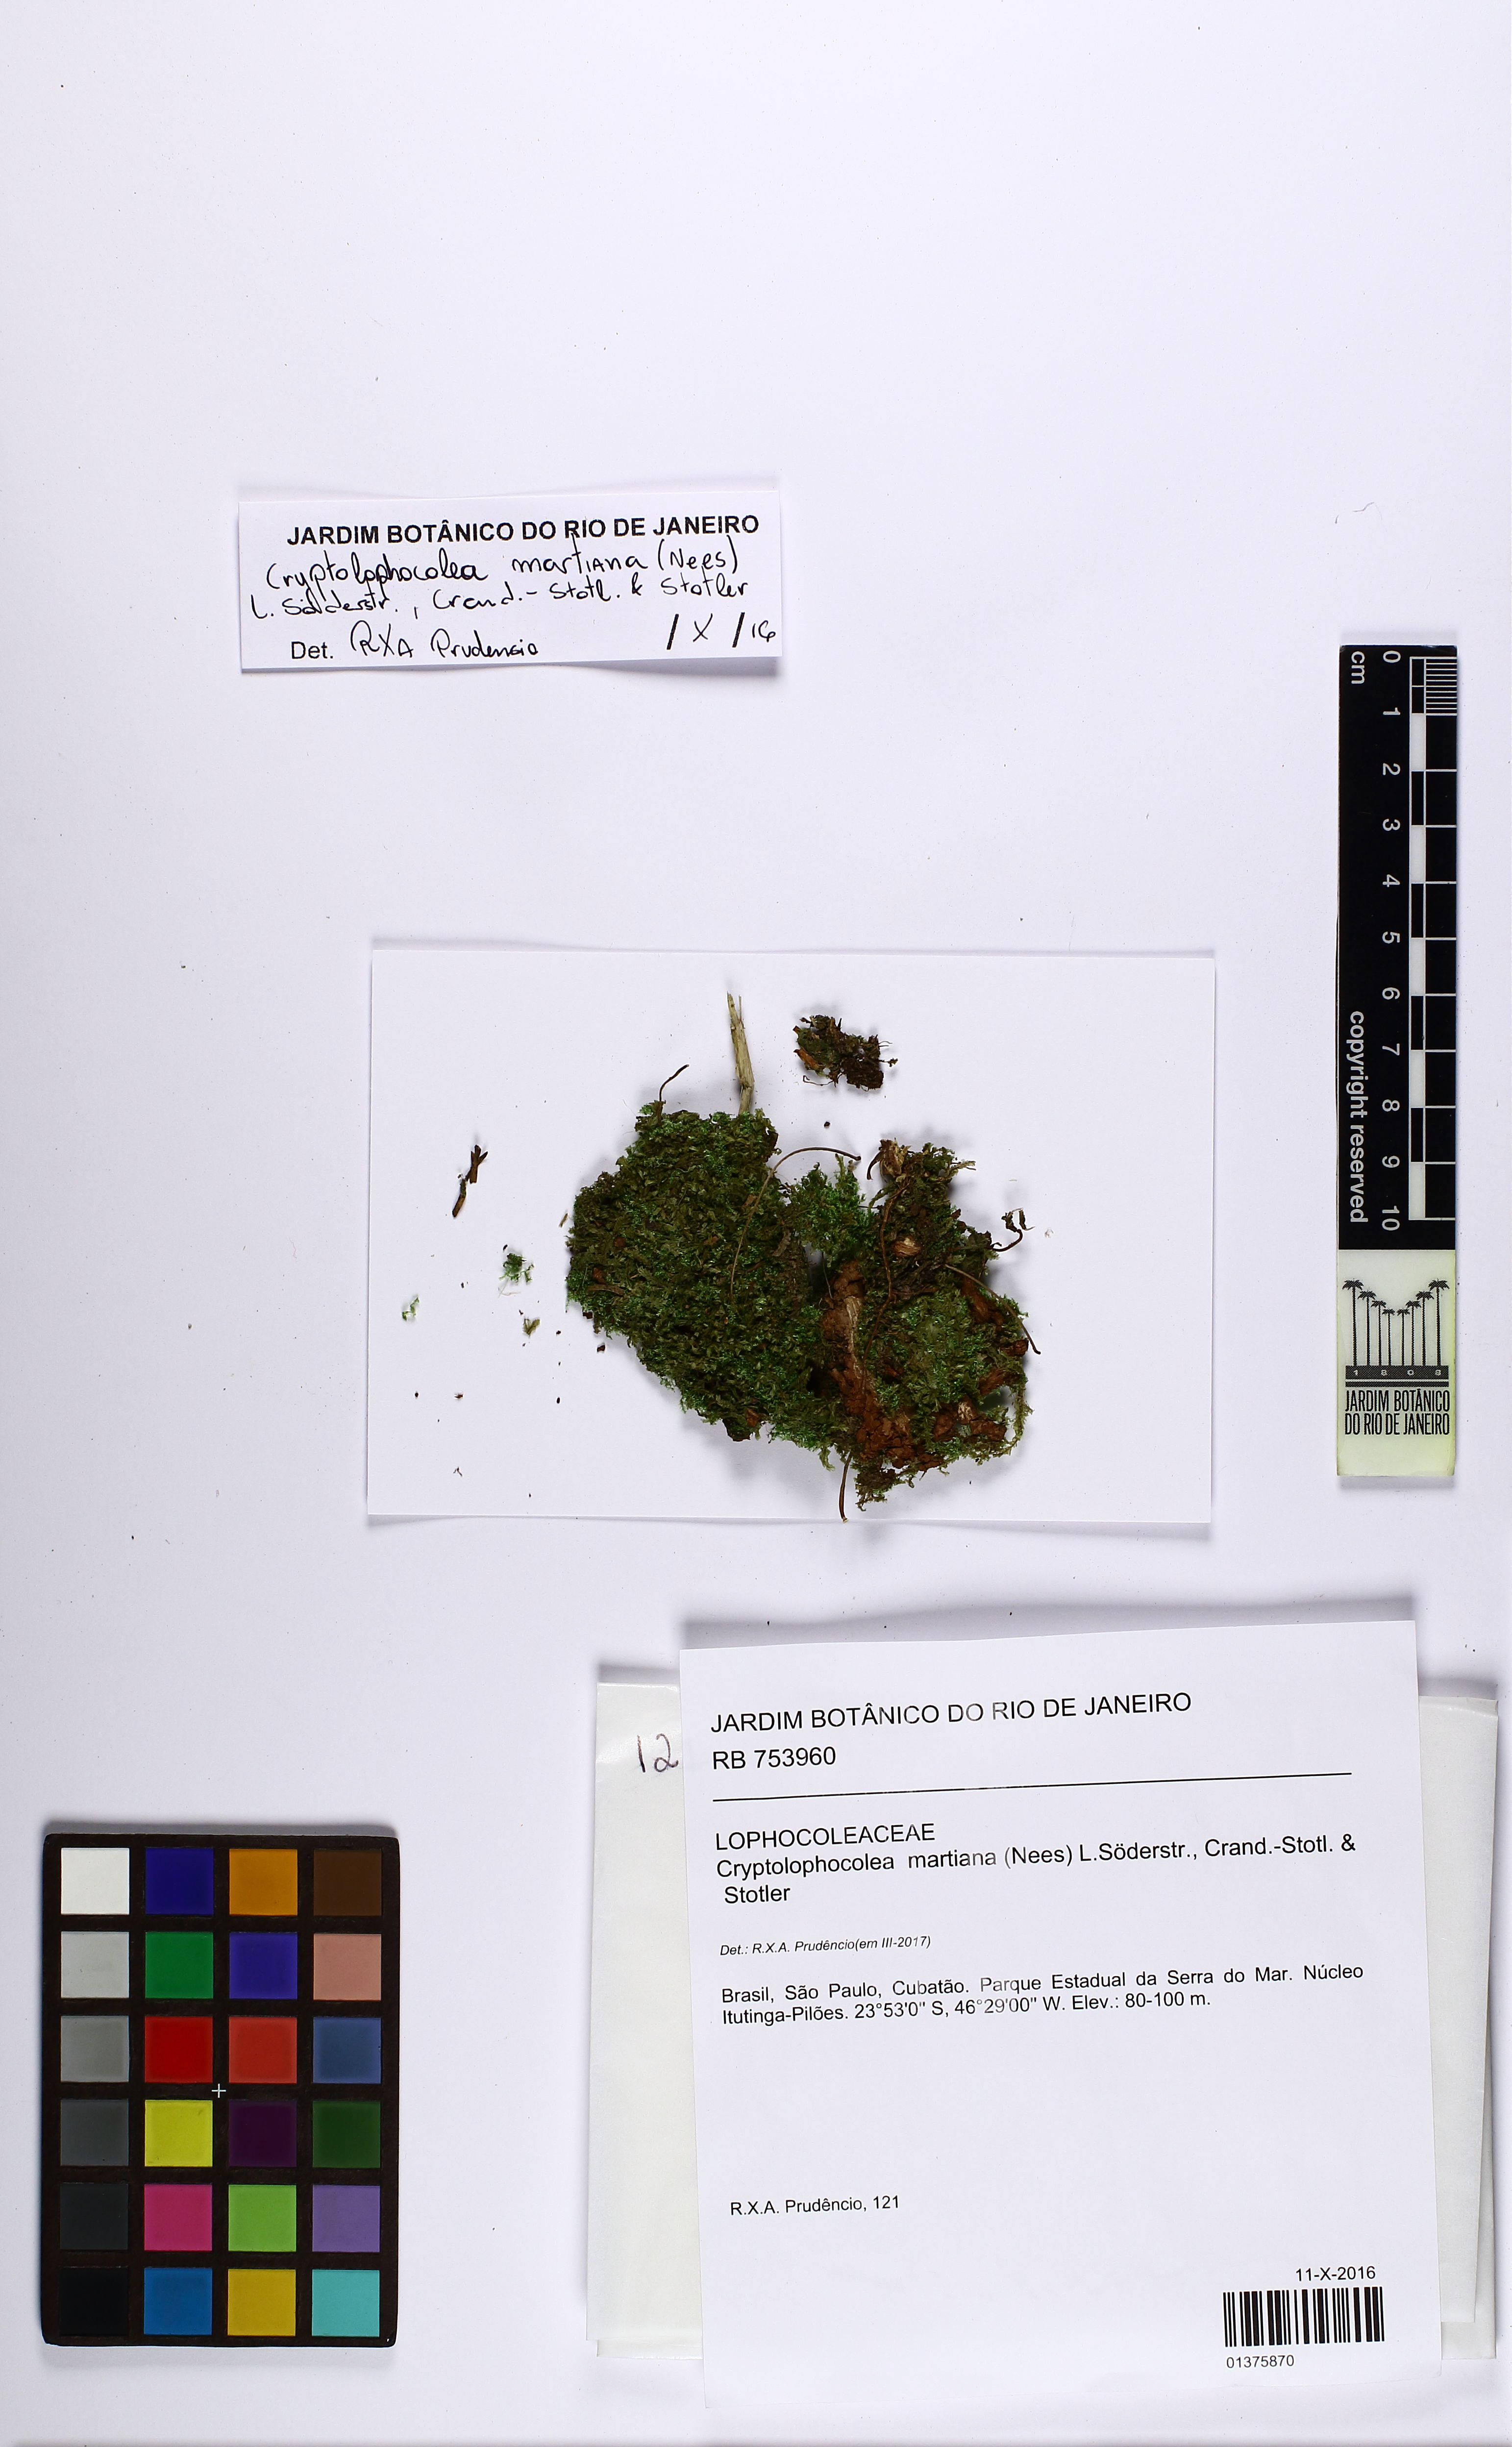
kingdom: Plantae
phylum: Marchantiophyta
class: Jungermanniopsida
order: Jungermanniales
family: Lophocoleaceae
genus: Cryptolophocolea
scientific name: Cryptolophocolea martiana
